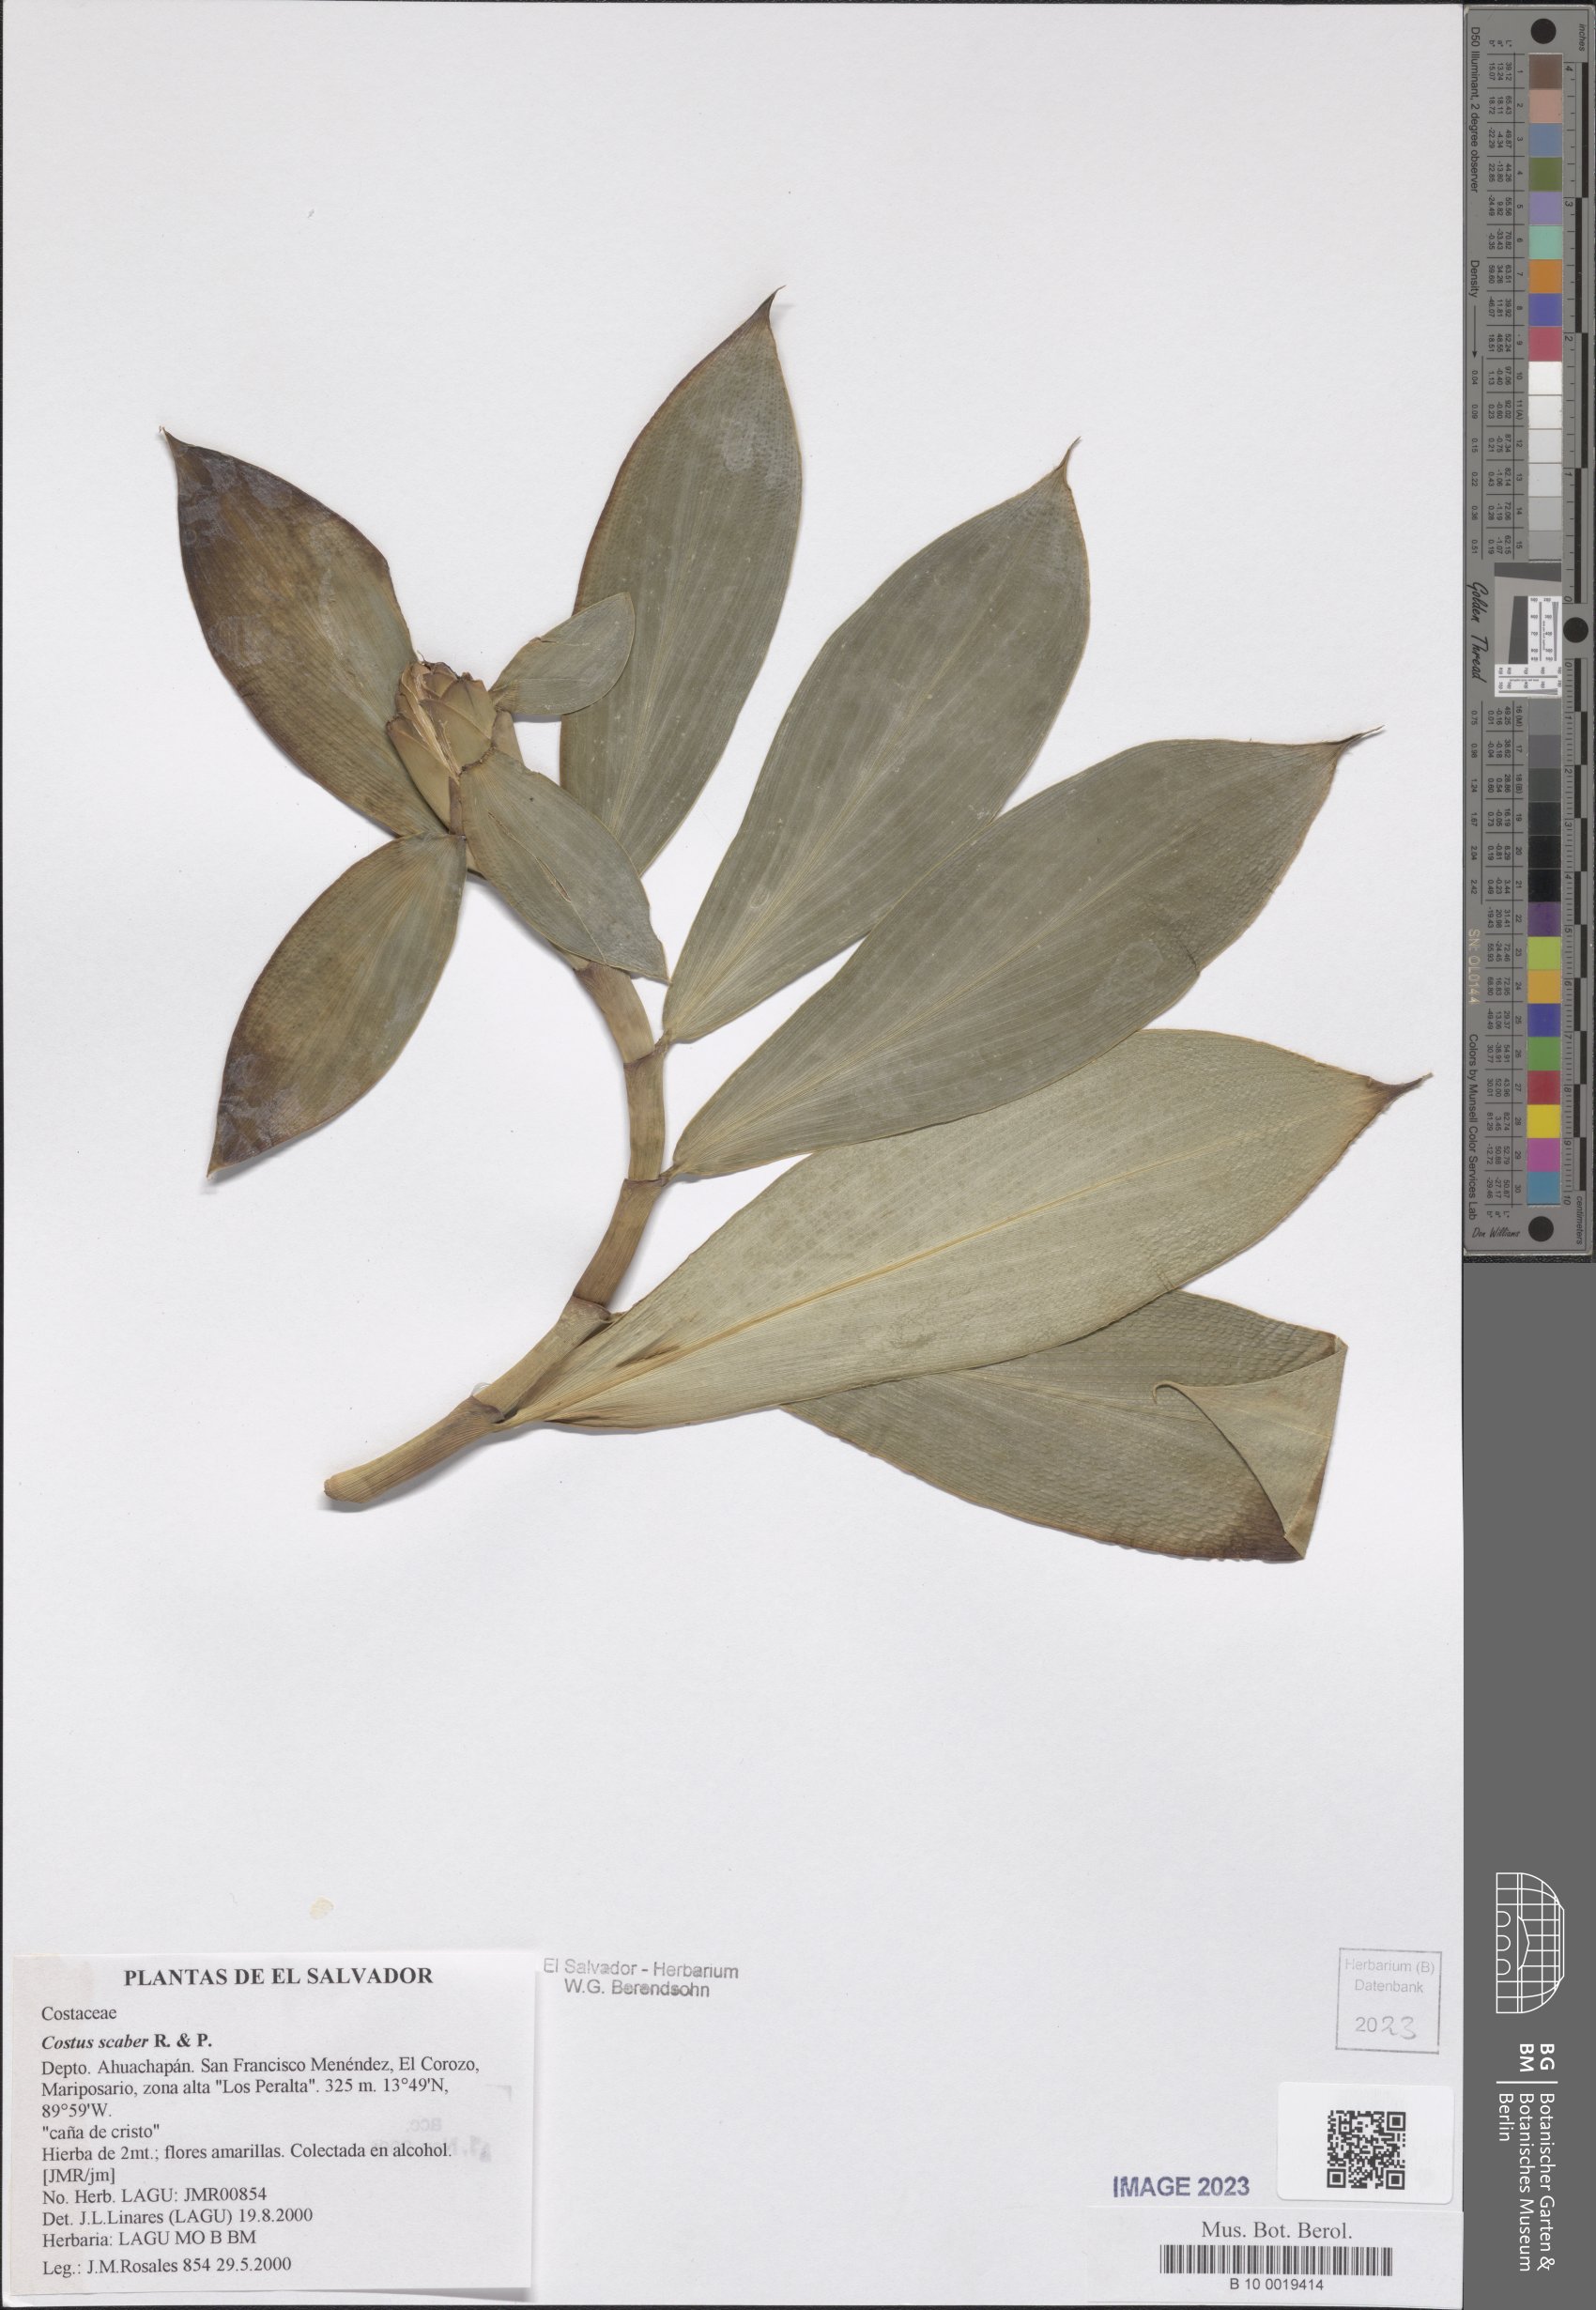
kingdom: Plantae
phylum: Tracheophyta
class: Liliopsida
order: Zingiberales
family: Costaceae
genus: Costus
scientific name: Costus scaber
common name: Spiral head ginger
